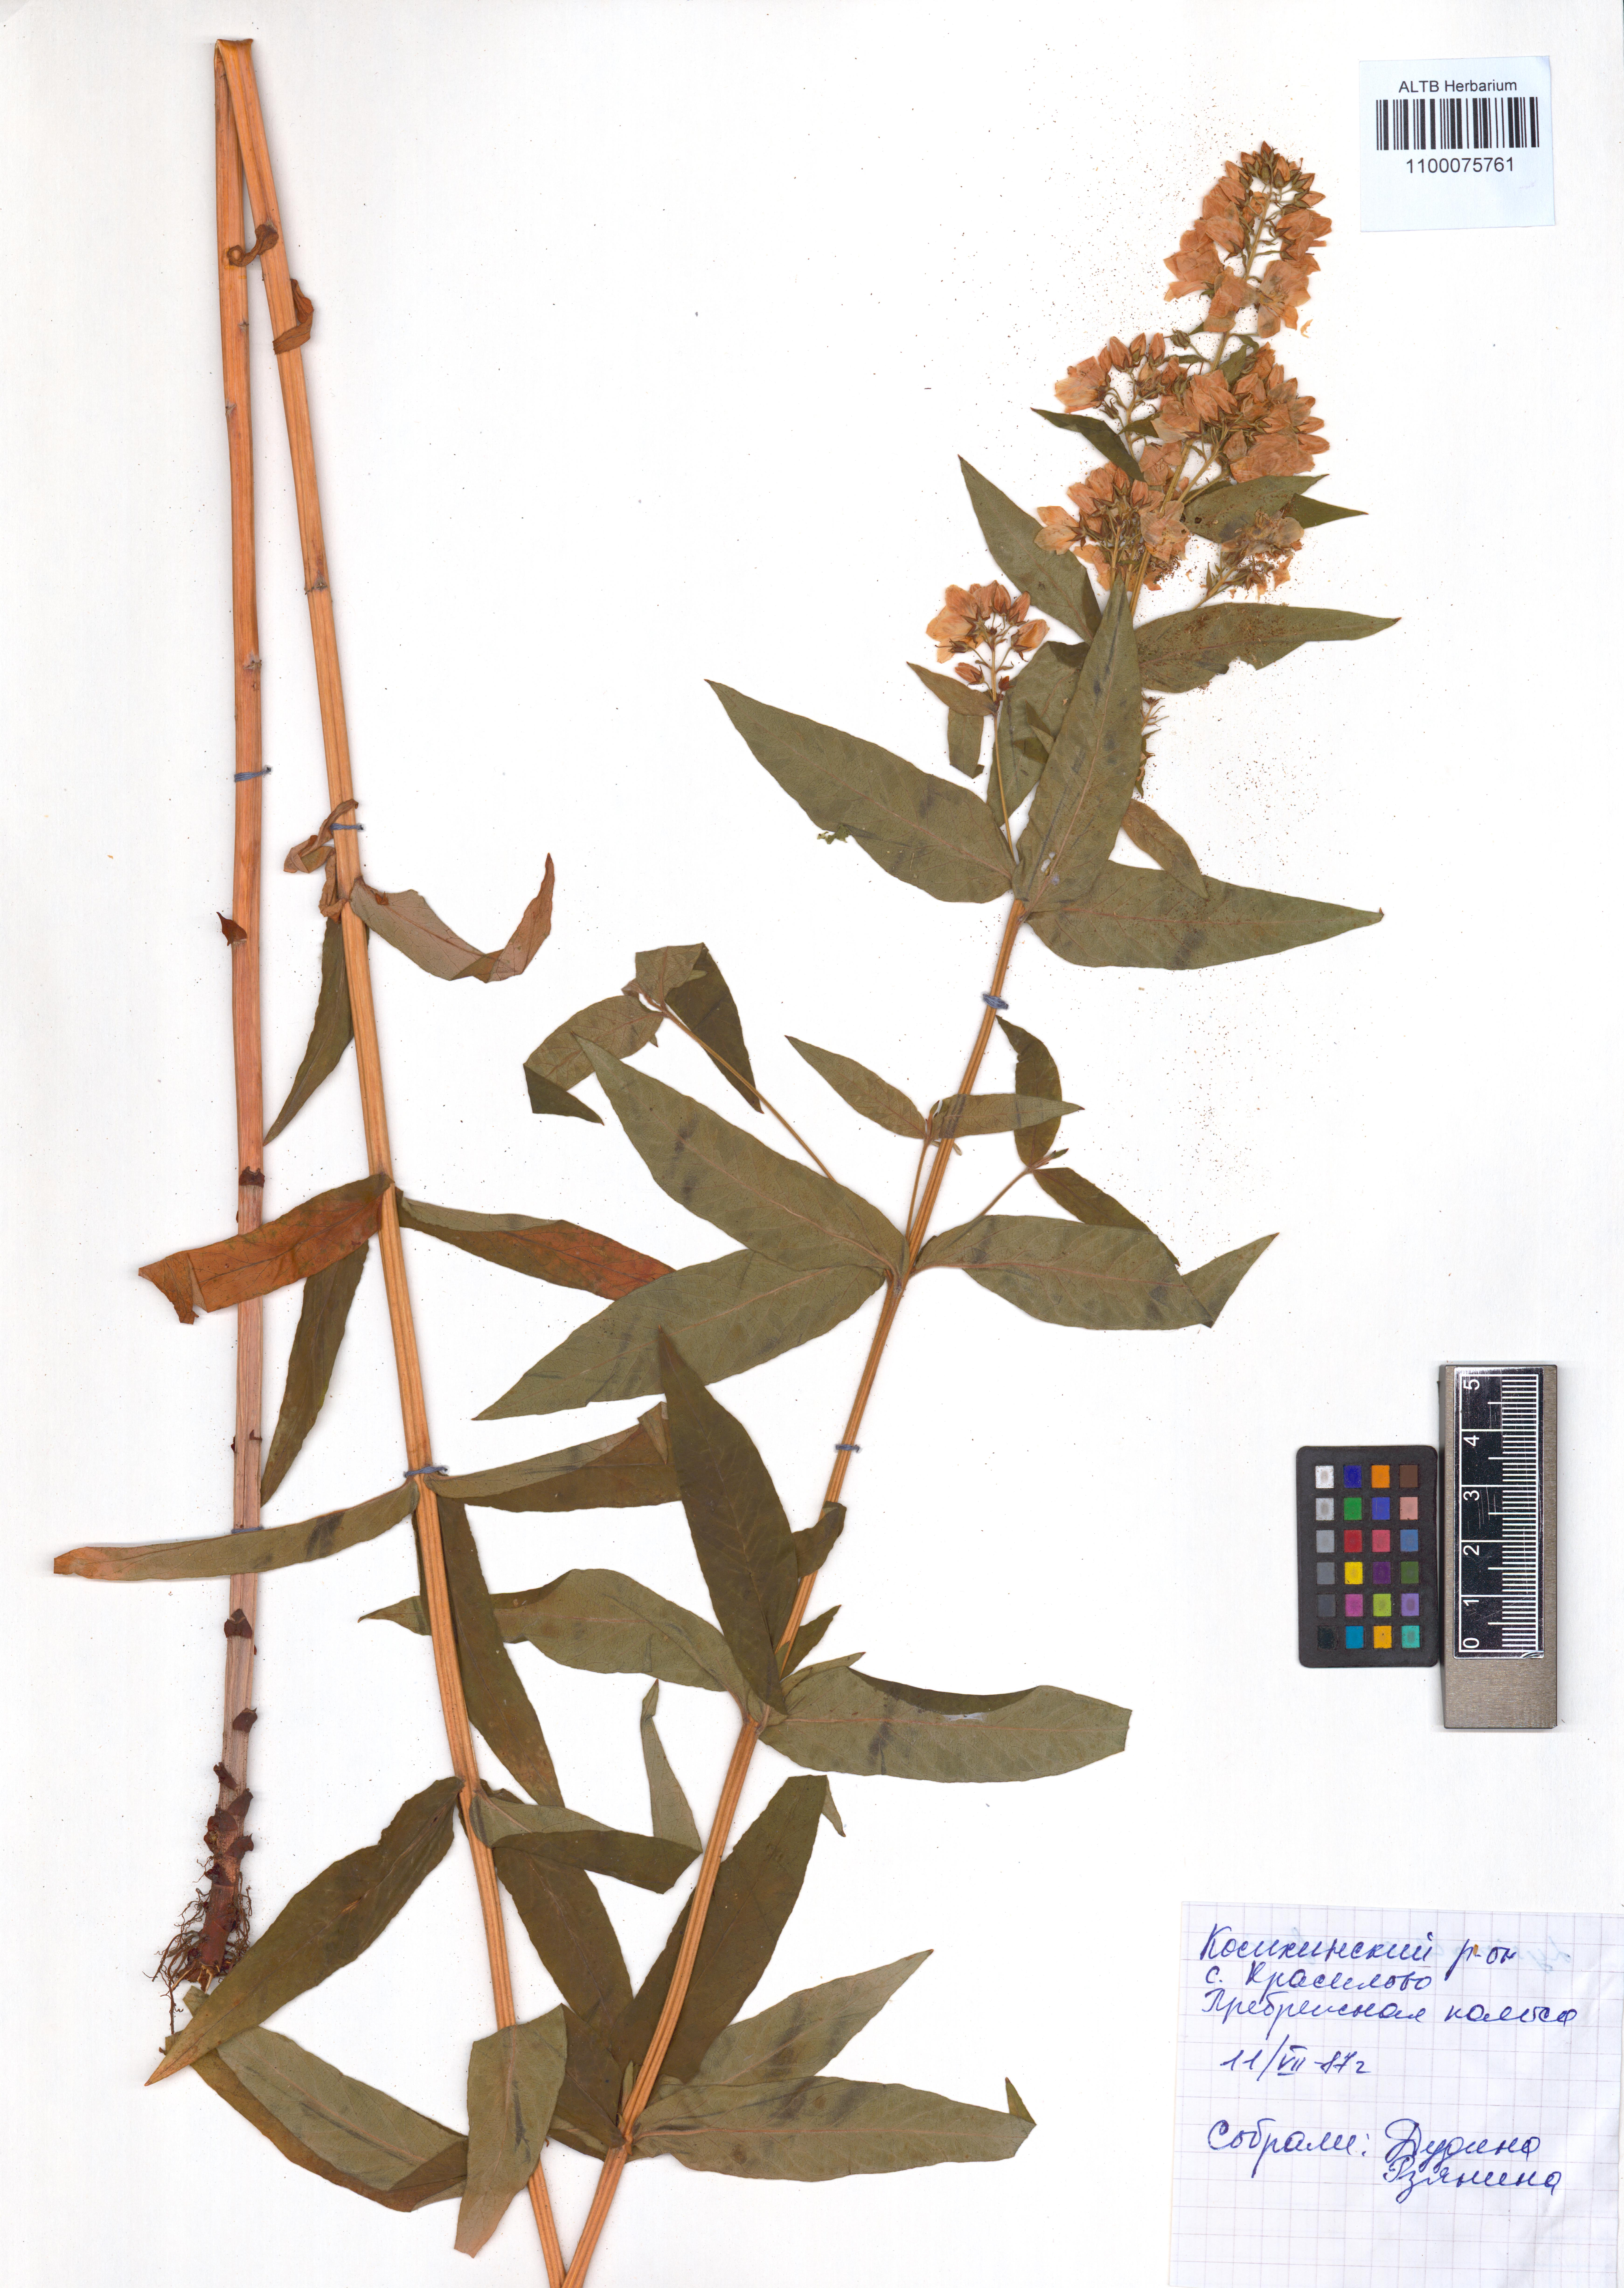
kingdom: Plantae
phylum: Tracheophyta
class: Magnoliopsida
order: Ericales
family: Primulaceae
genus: Lysimachia
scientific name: Lysimachia vulgaris
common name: Yellow loosestrife
